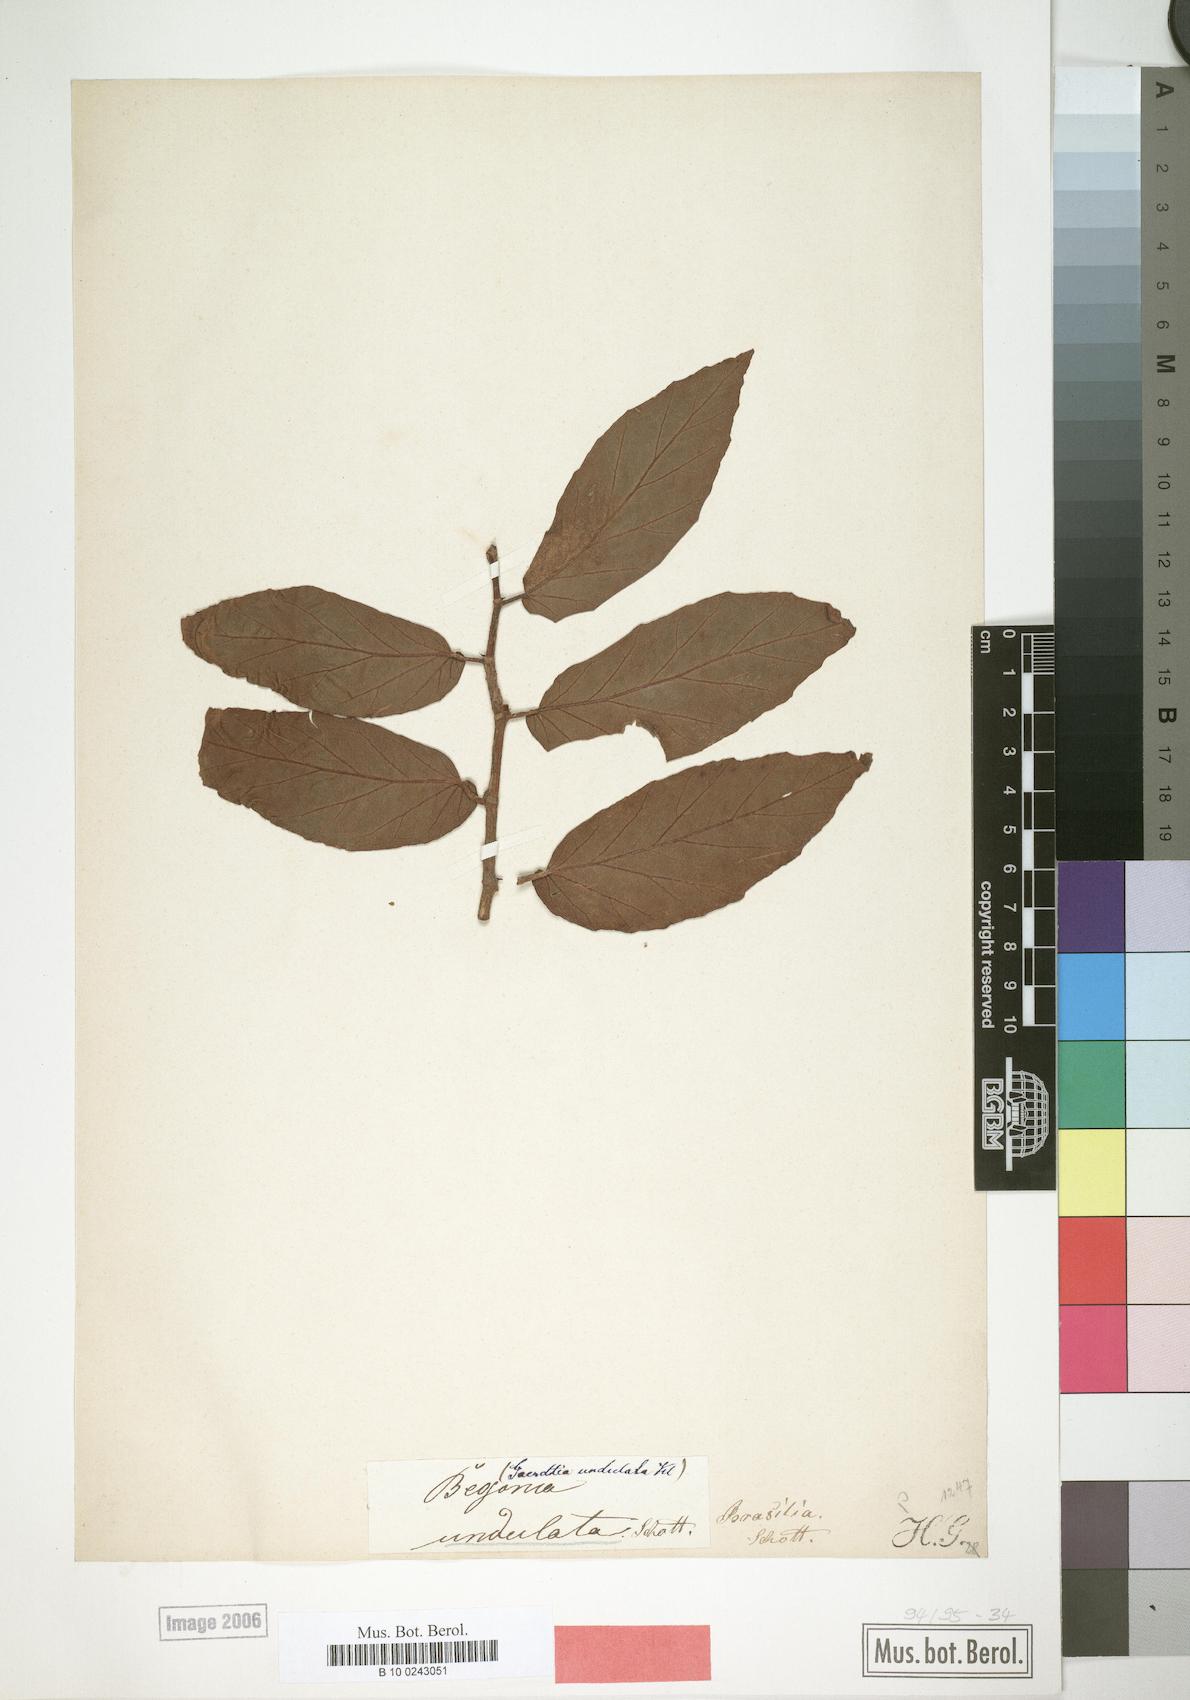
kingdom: Plantae
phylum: Tracheophyta
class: Magnoliopsida
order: Cucurbitales
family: Begoniaceae
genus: Begonia
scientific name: Begonia undulata
